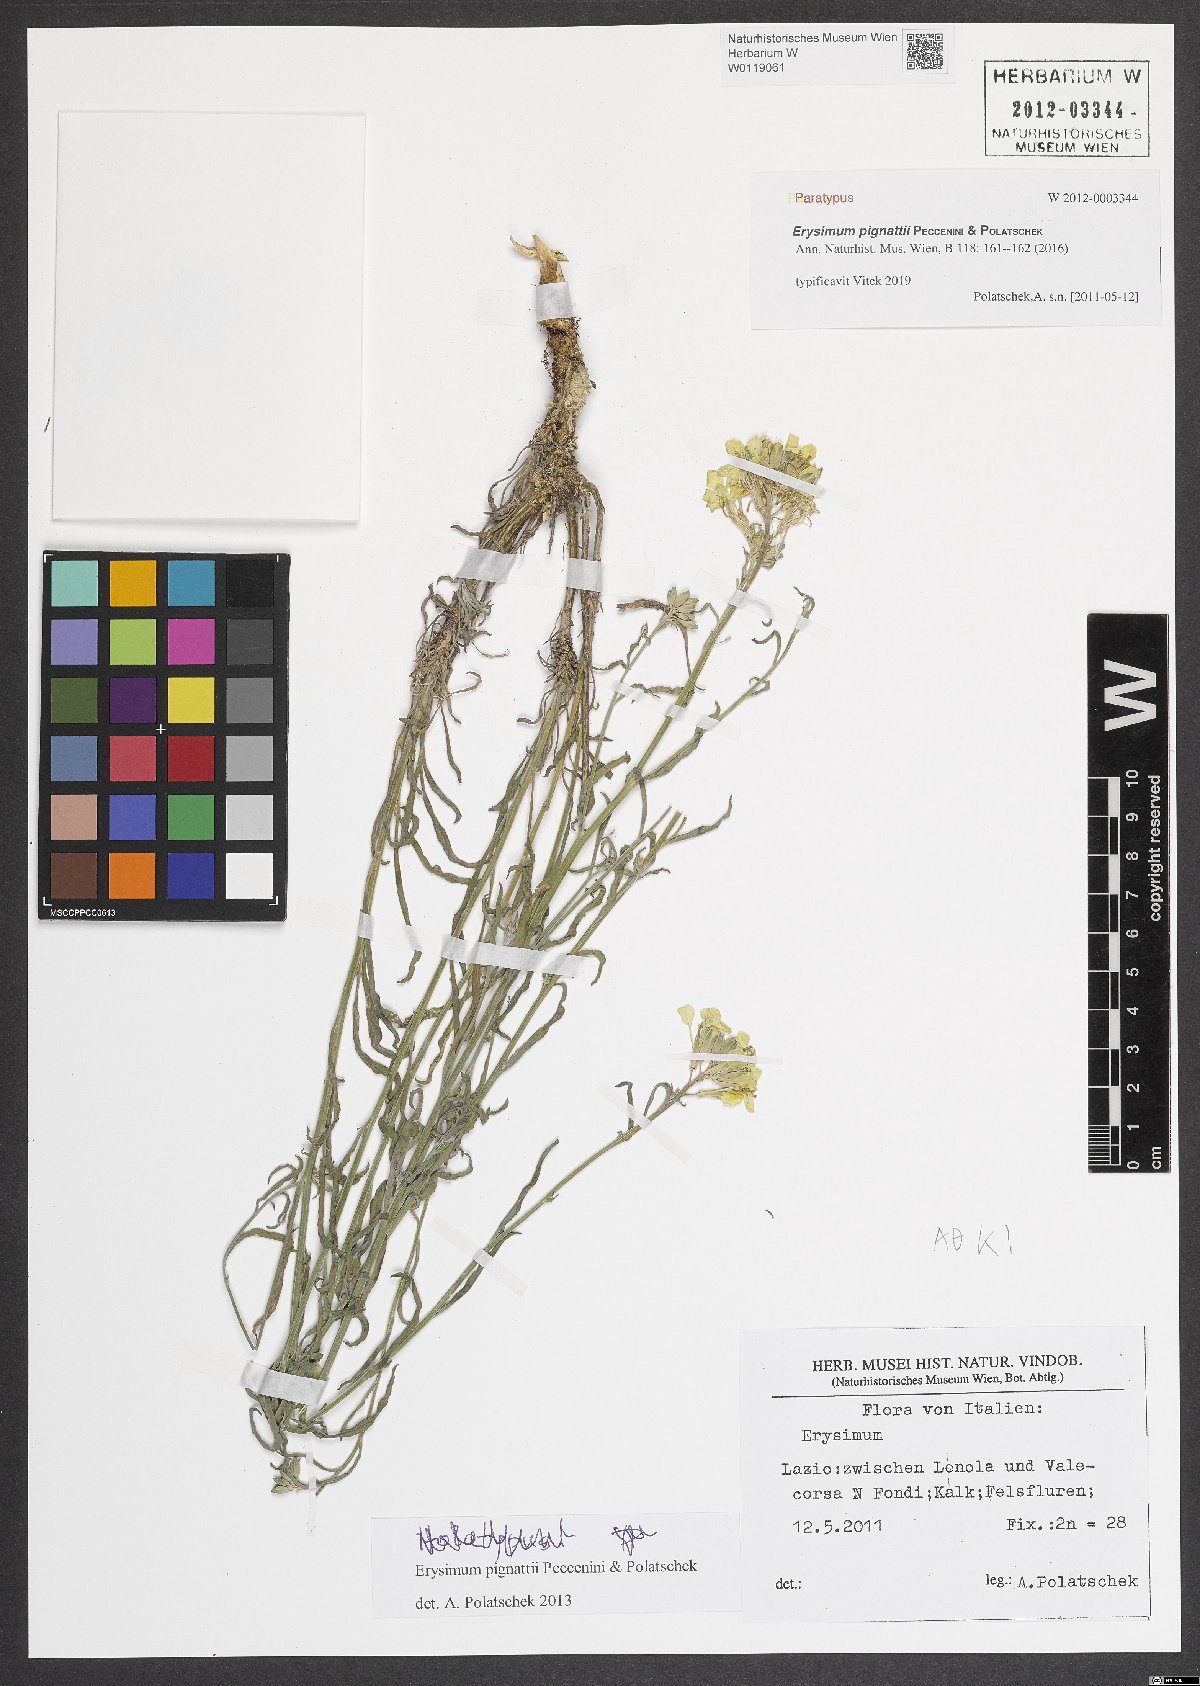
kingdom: Plantae
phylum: Tracheophyta
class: Magnoliopsida
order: Brassicales
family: Brassicaceae
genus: Erysimum
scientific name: Erysimum pignattii
